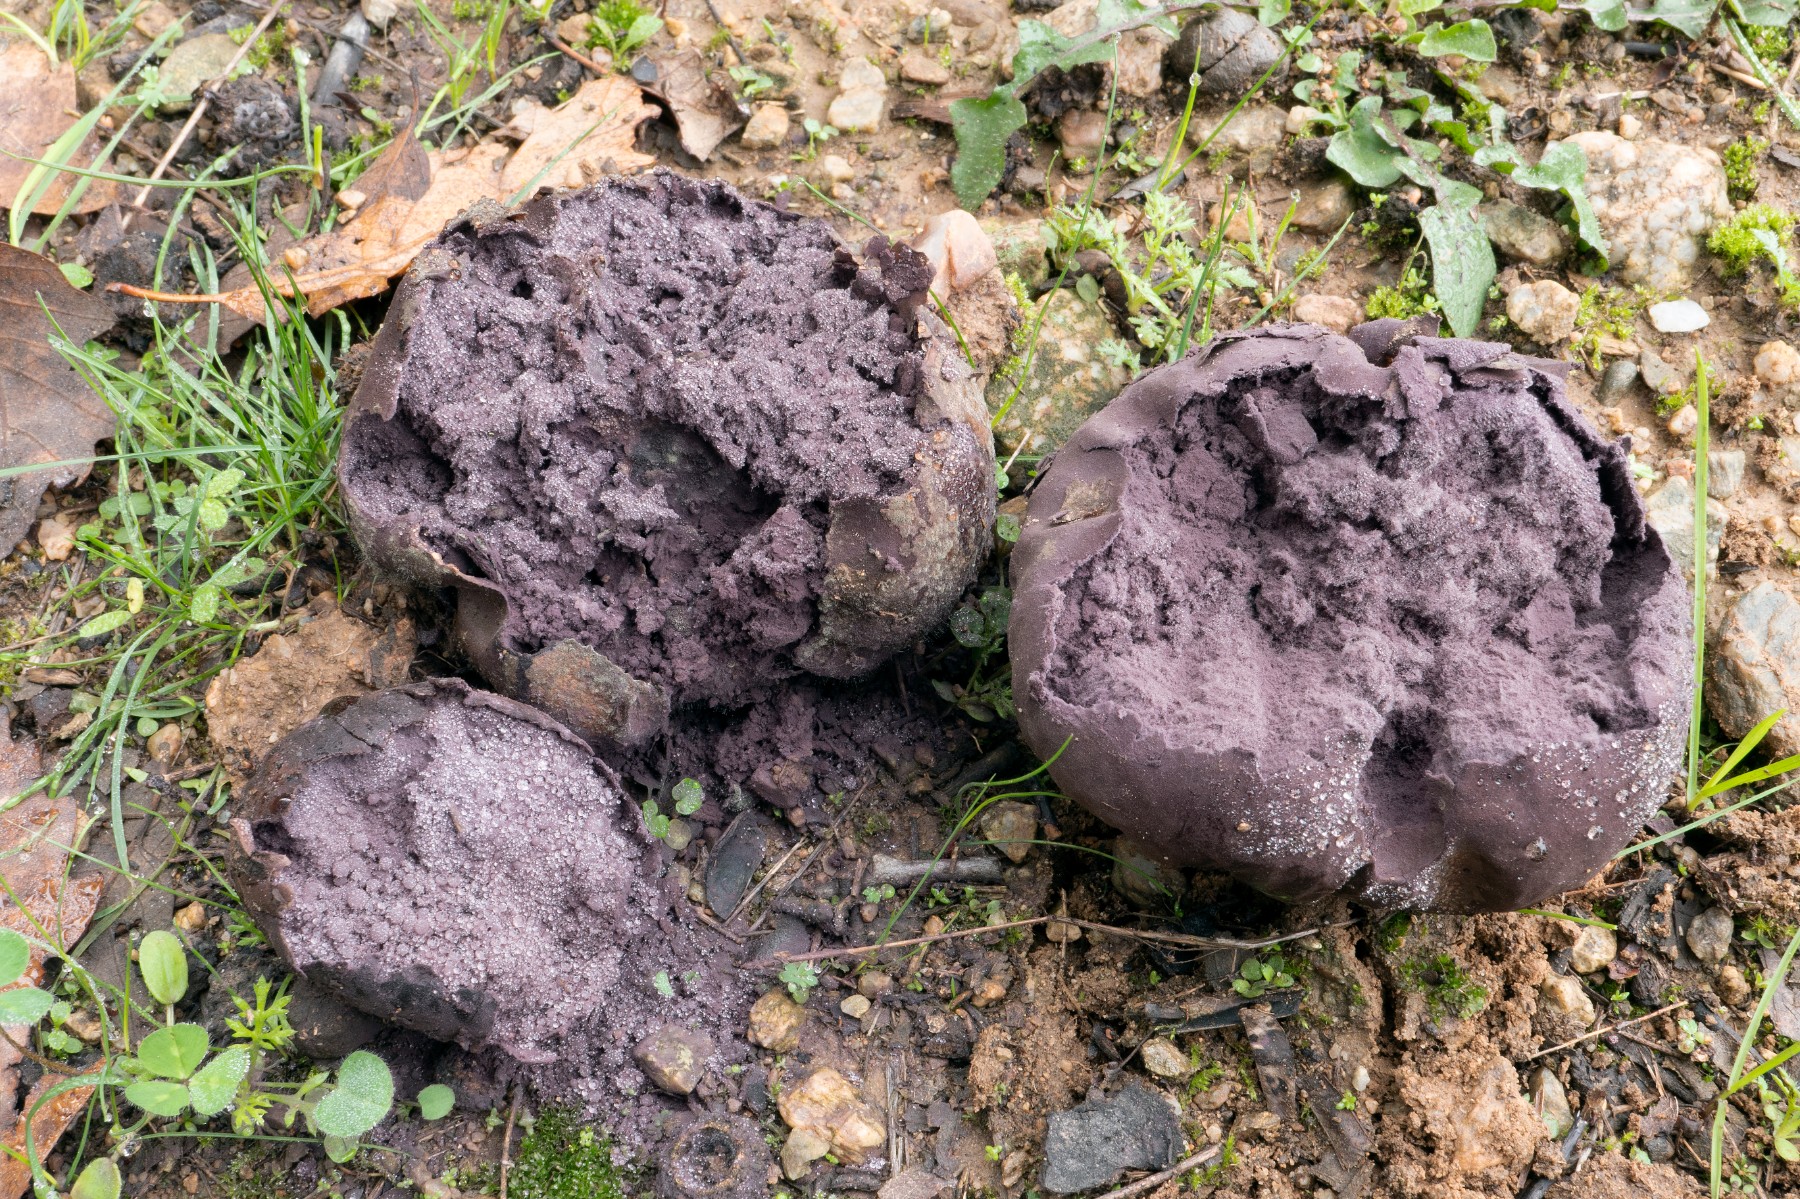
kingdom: Fungi
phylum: Basidiomycota
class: Agaricomycetes
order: Agaricales
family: Lycoperdaceae
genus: Calvatia
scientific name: Calvatia cyathiformis
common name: Purple-spored puffball
